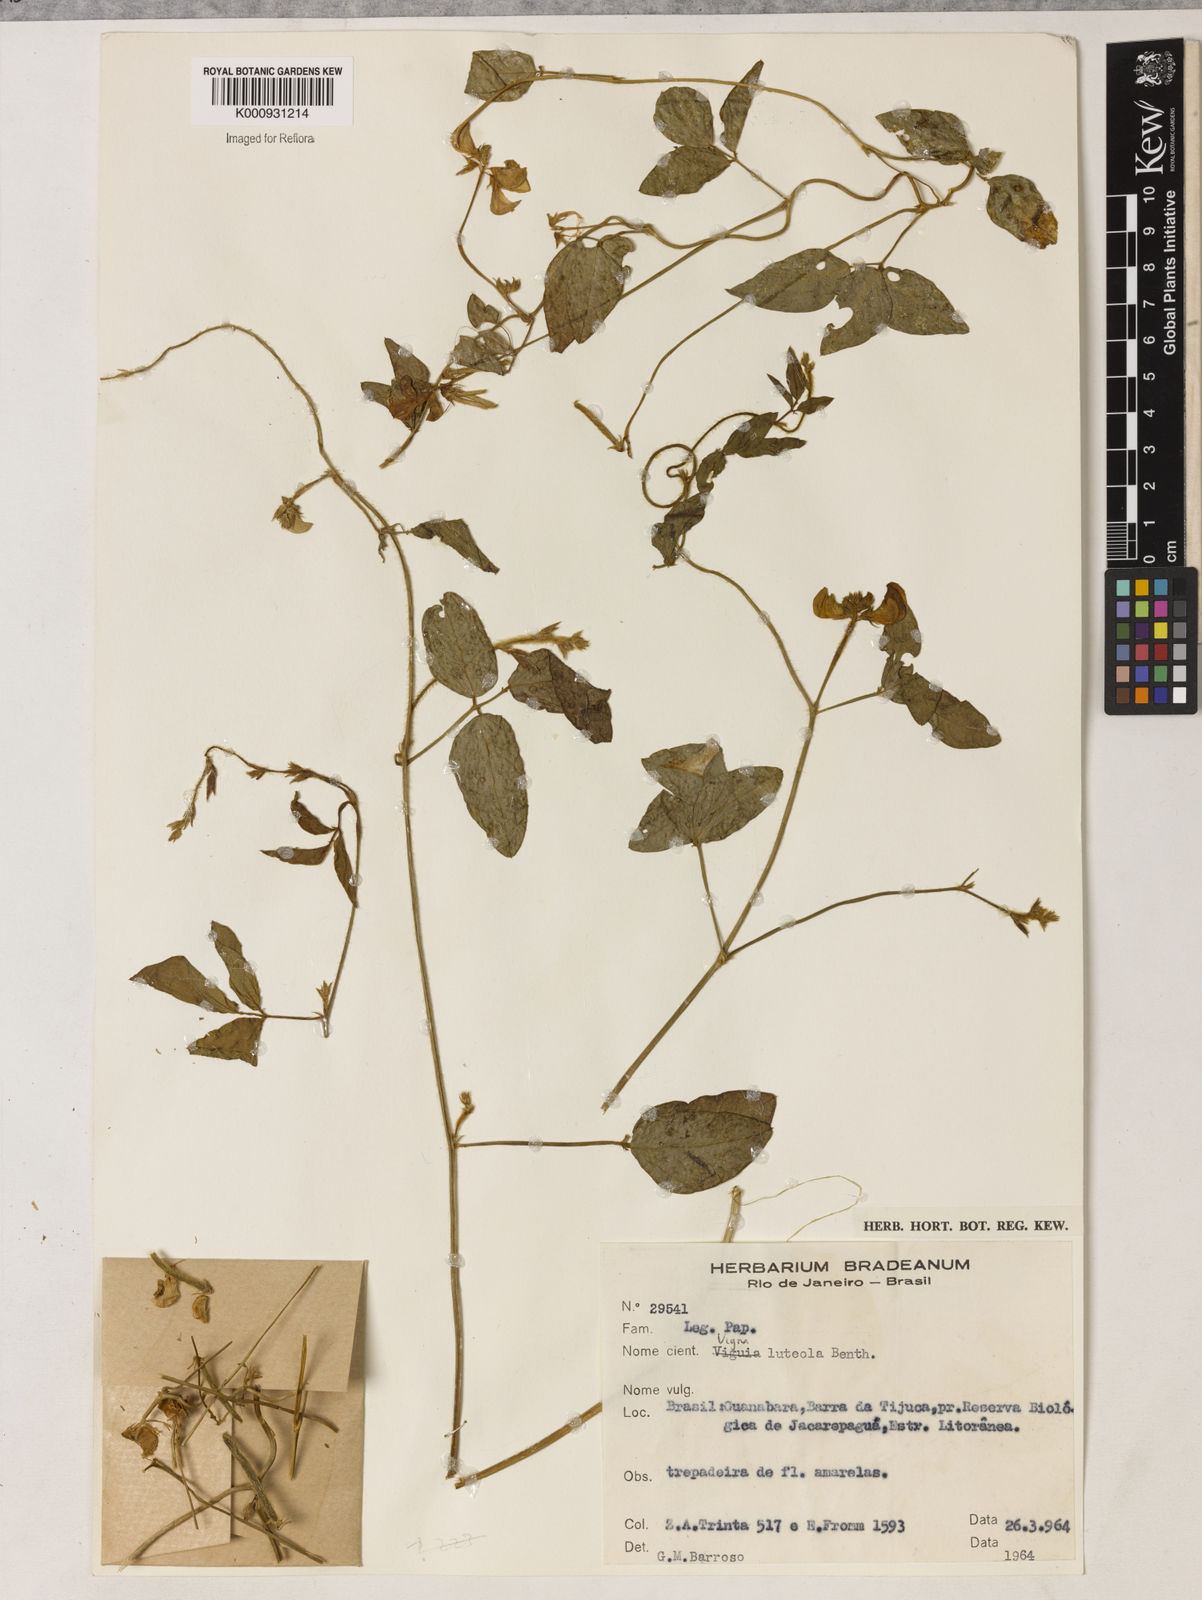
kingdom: Plantae
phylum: Tracheophyta
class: Magnoliopsida
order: Fabales
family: Fabaceae
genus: Vigna
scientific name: Vigna luteola
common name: Hairypod cowpea
